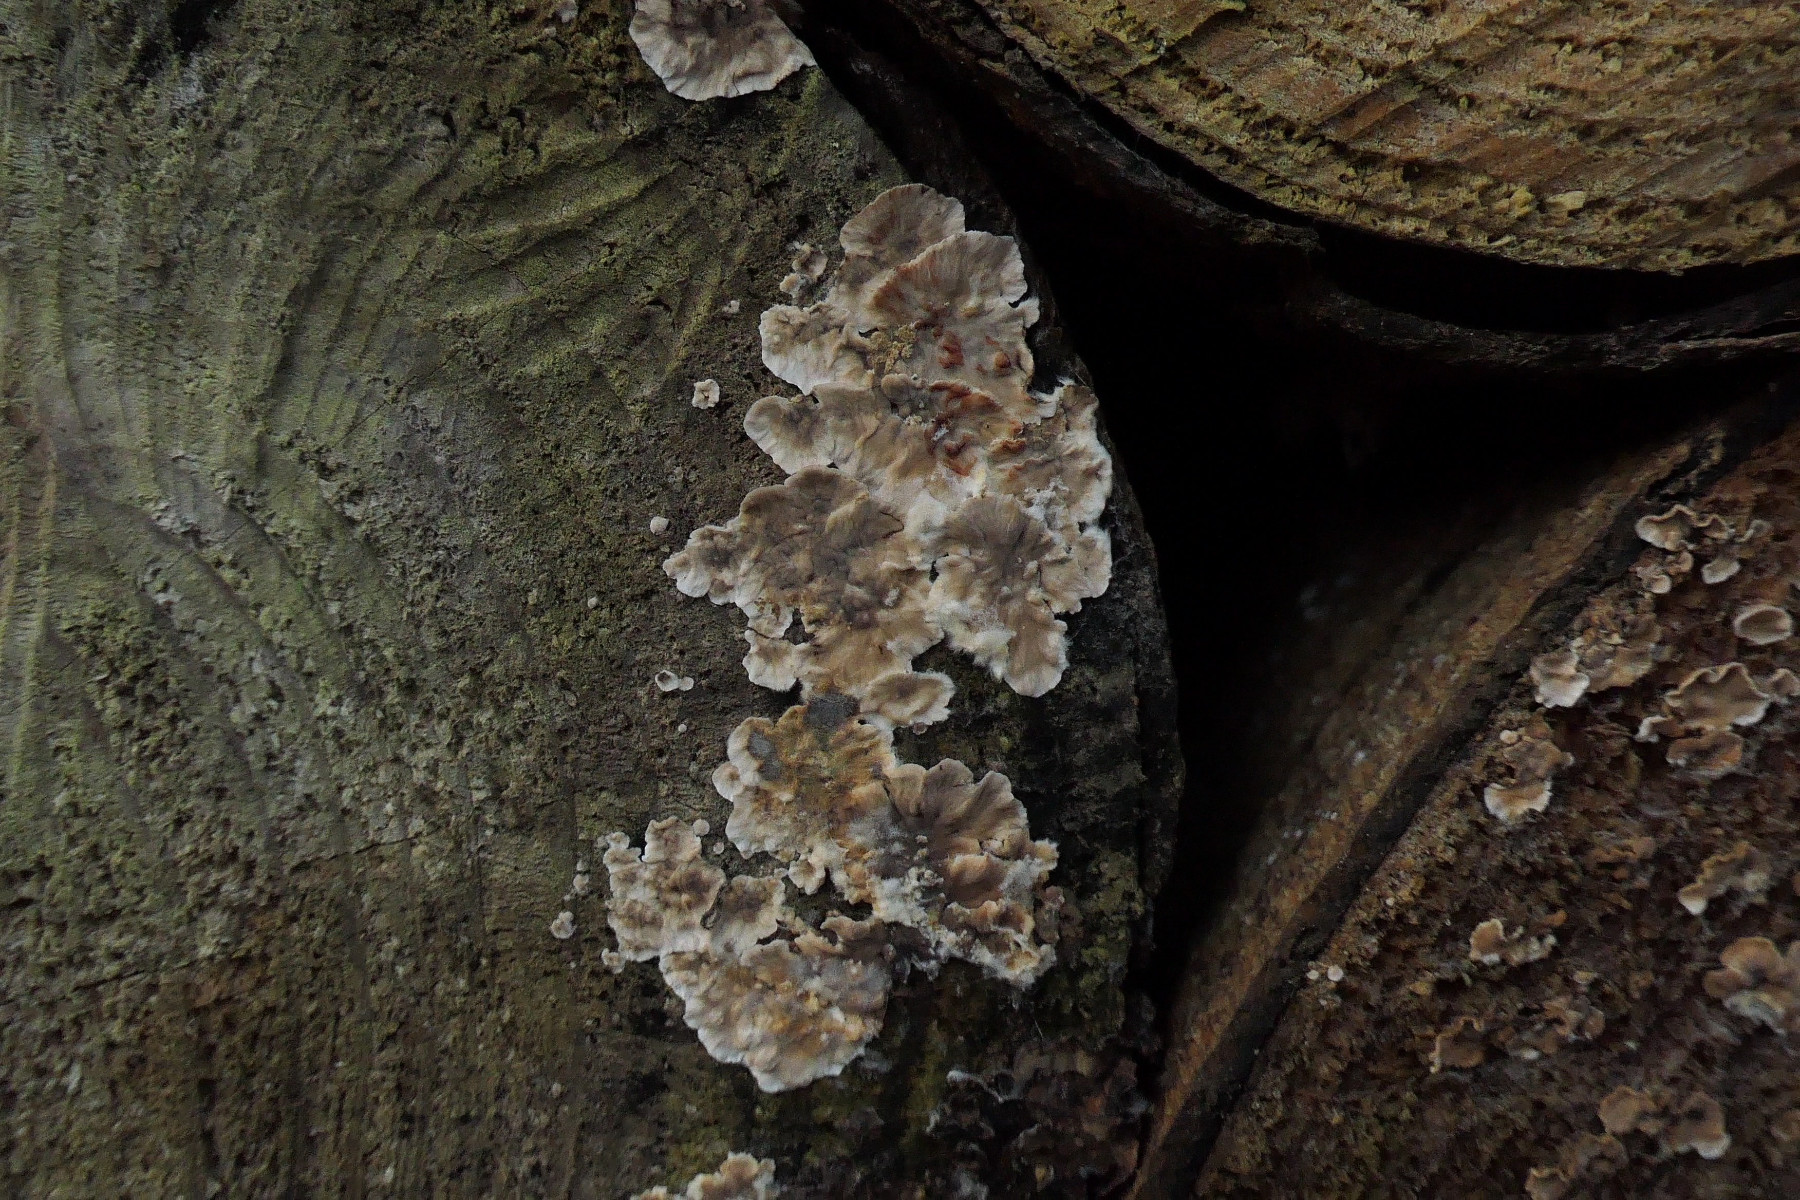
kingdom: Fungi
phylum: Basidiomycota
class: Agaricomycetes
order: Russulales
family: Stereaceae
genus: Stereum
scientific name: Stereum sanguinolentum
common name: blødende lædersvamp
